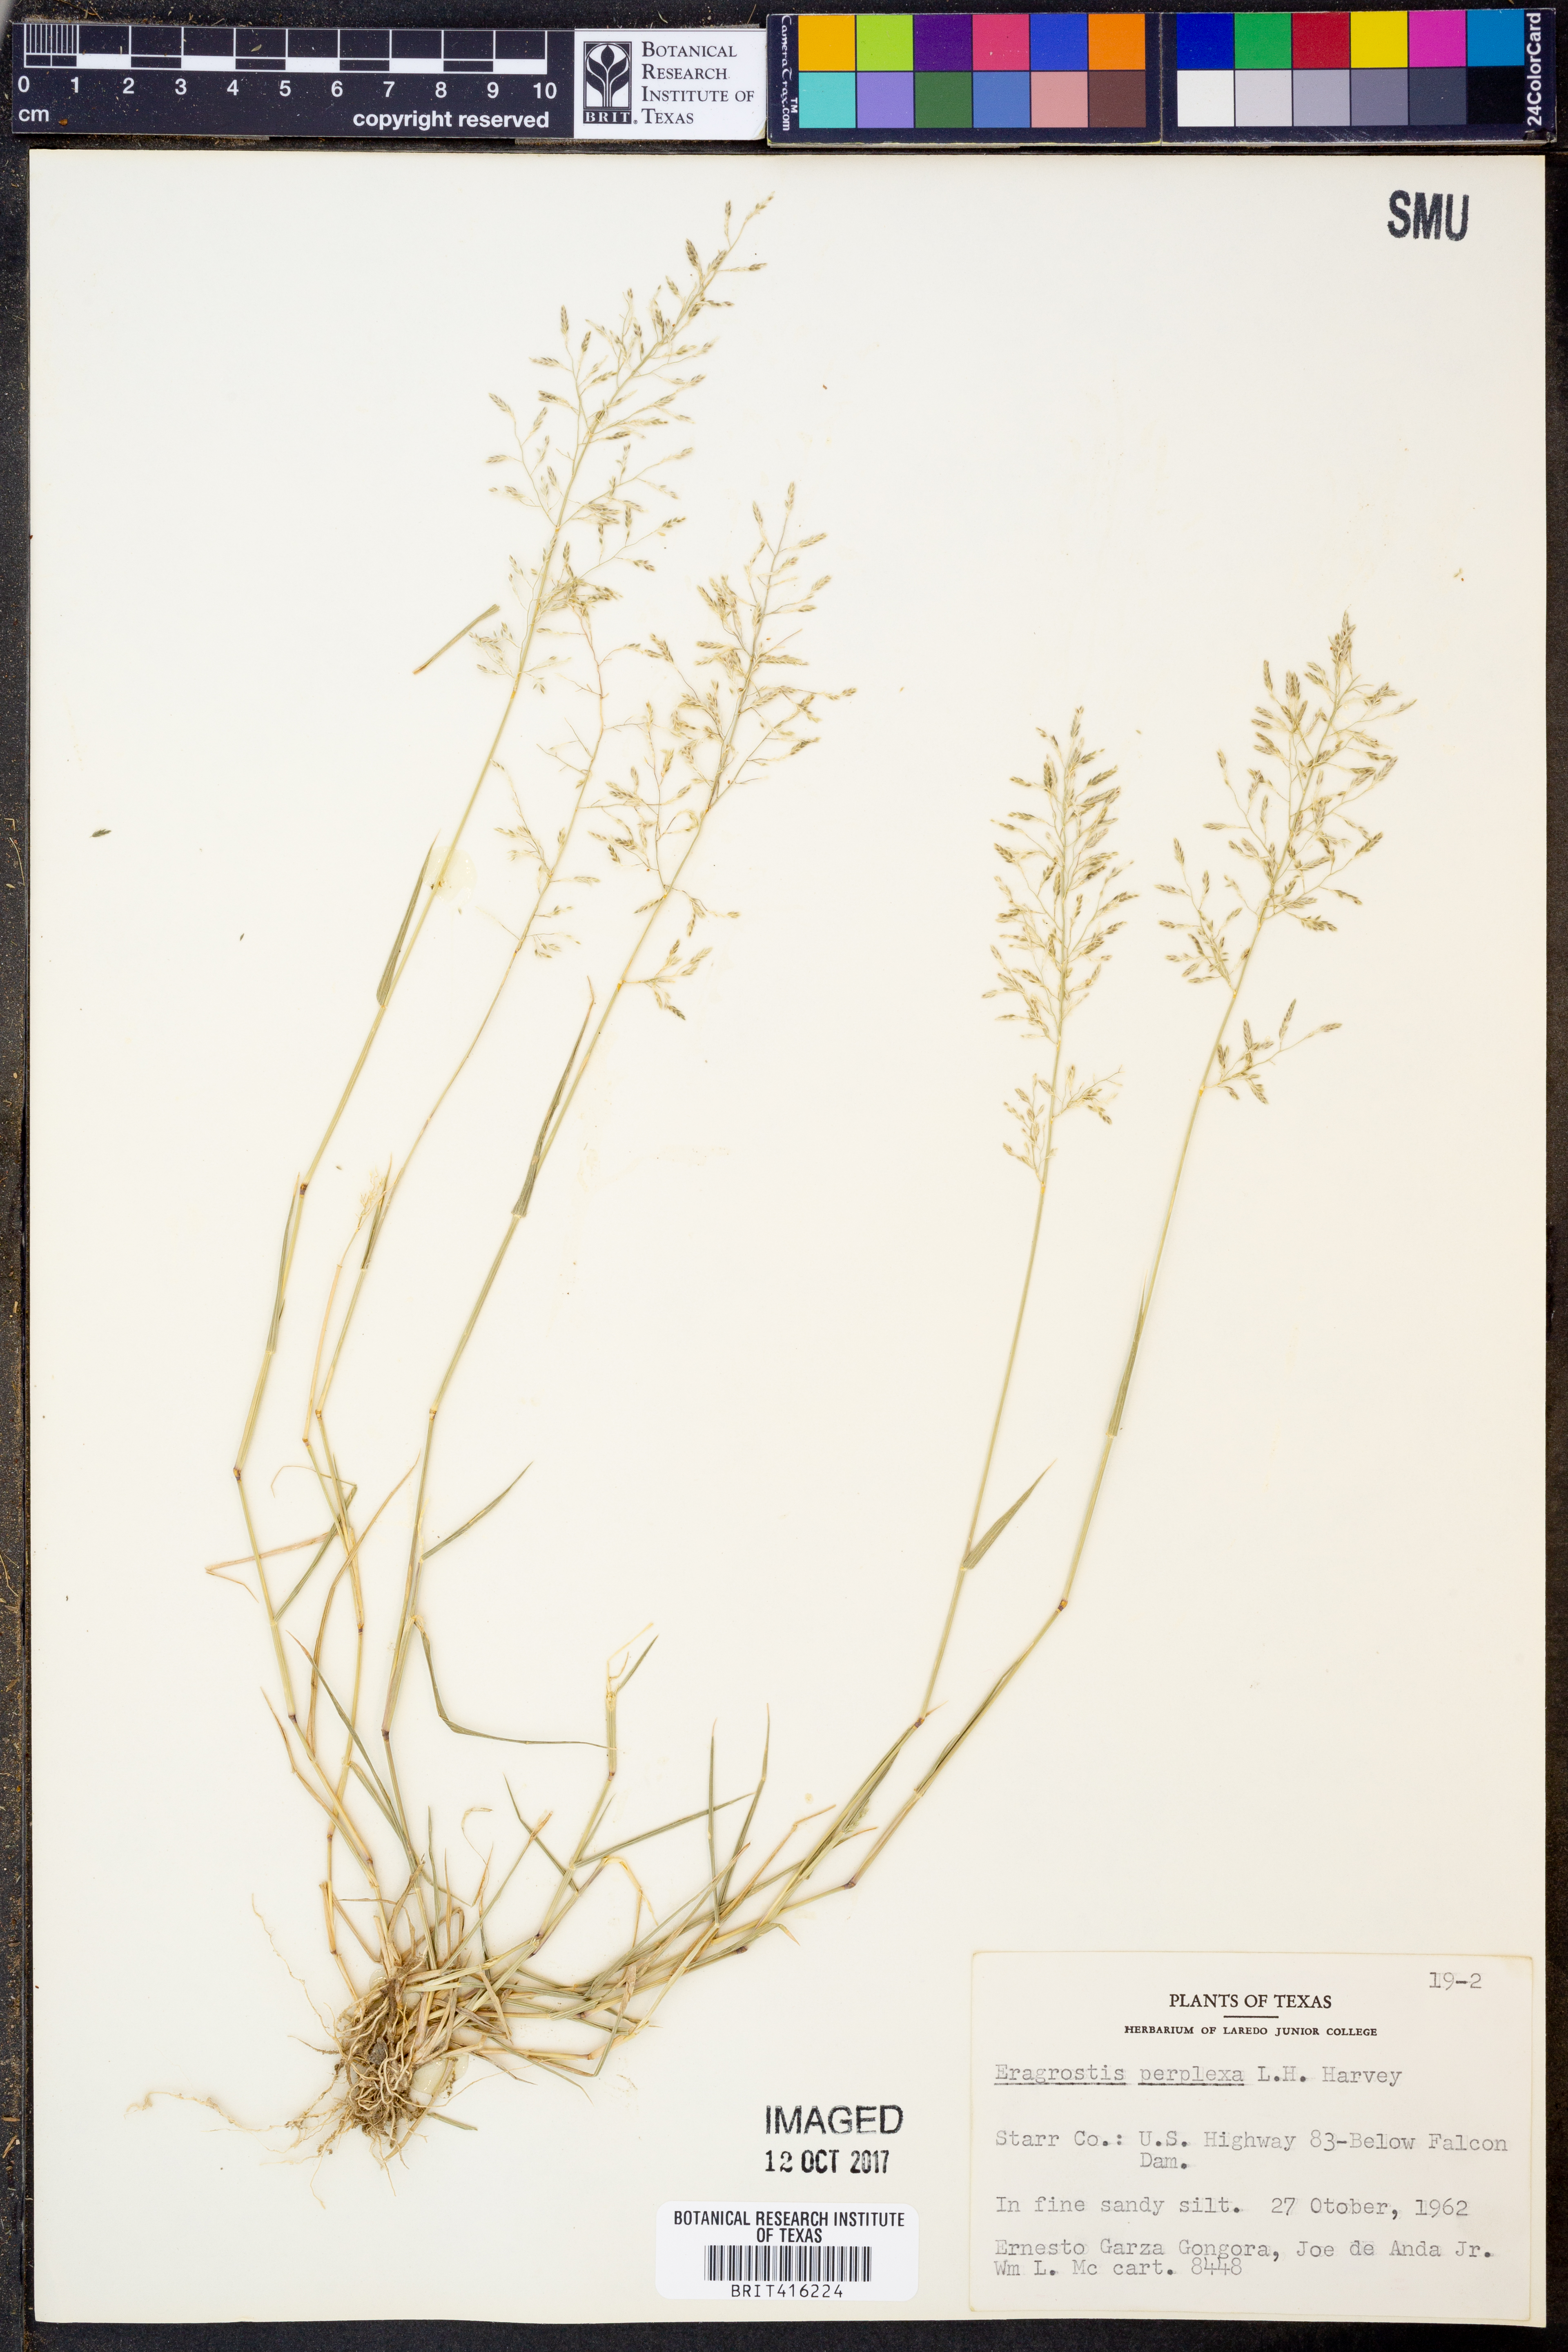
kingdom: Plantae
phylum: Tracheophyta
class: Liliopsida
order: Poales
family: Poaceae
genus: Eragrostis
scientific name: Eragrostis perplexa
